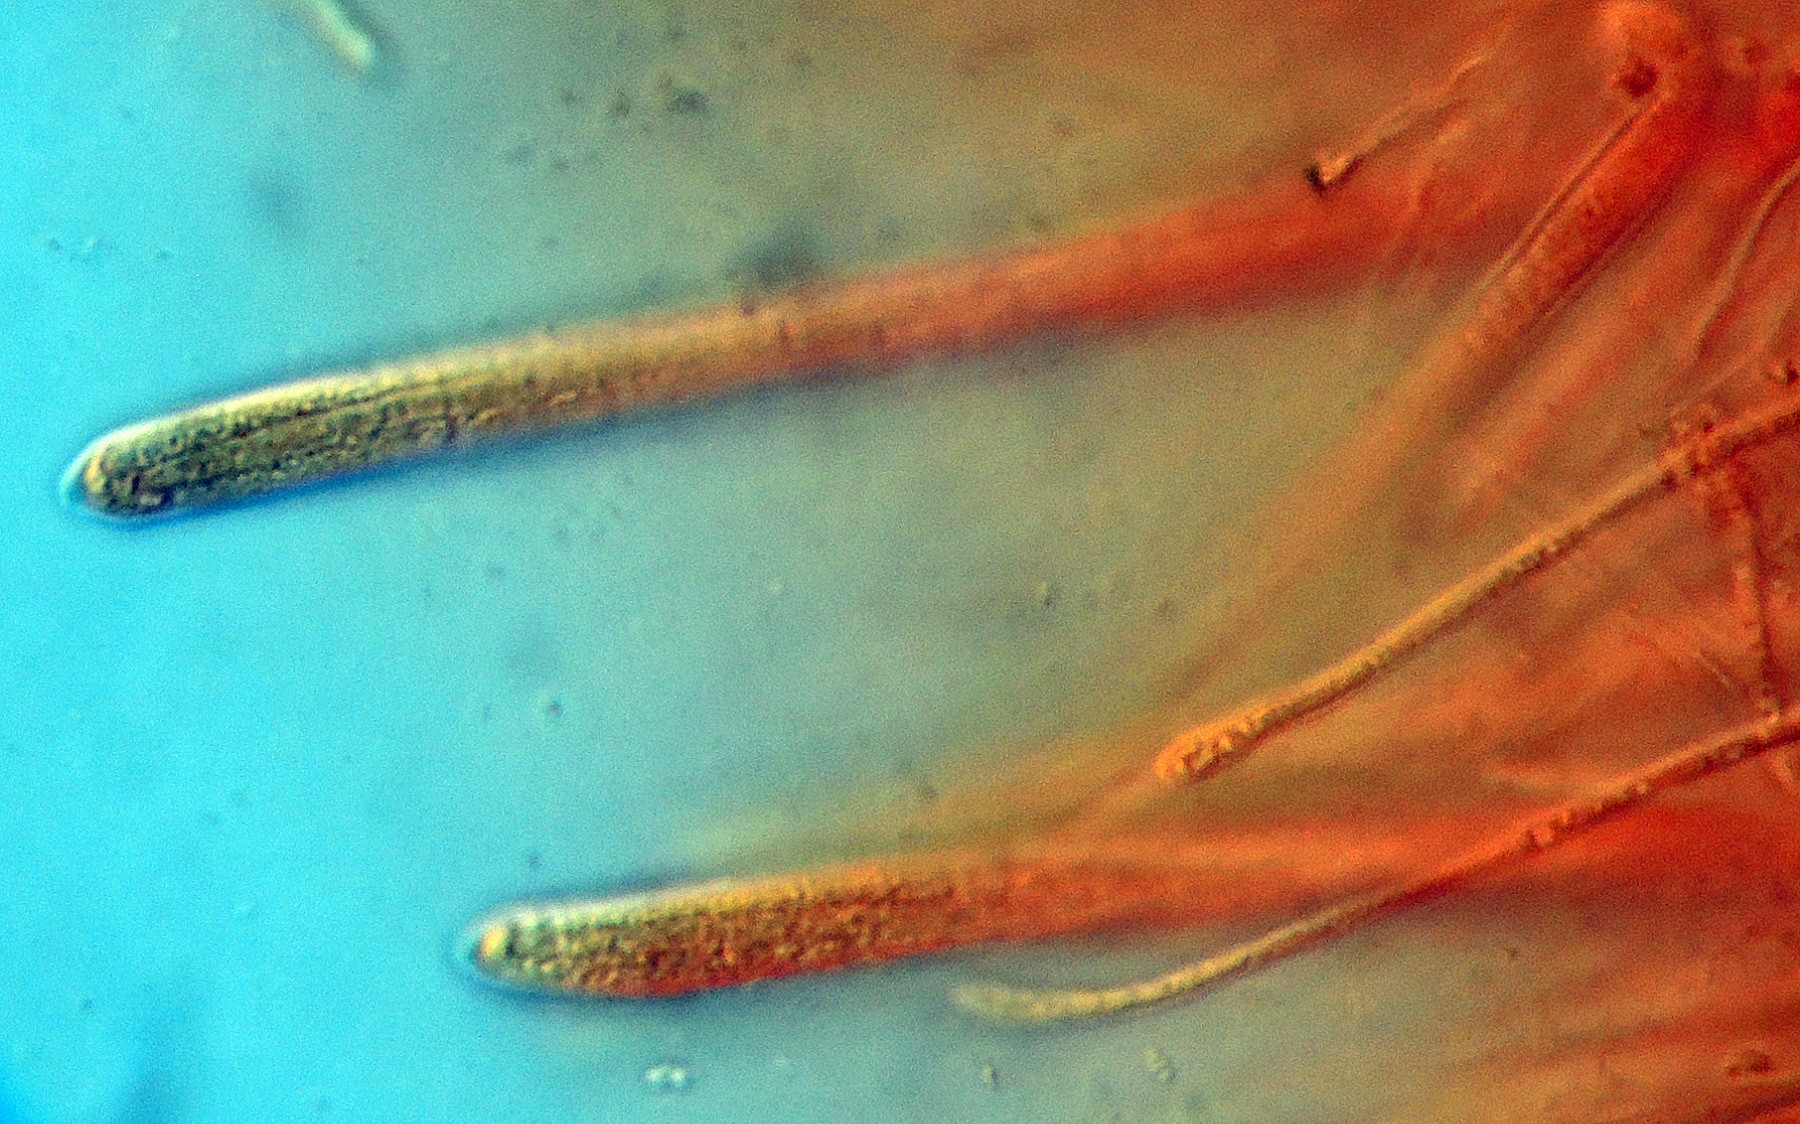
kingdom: Fungi
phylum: Ascomycota
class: Leotiomycetes
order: Helotiales
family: Cenangiaceae
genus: Crumenula
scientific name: Crumenula urceoliformis
